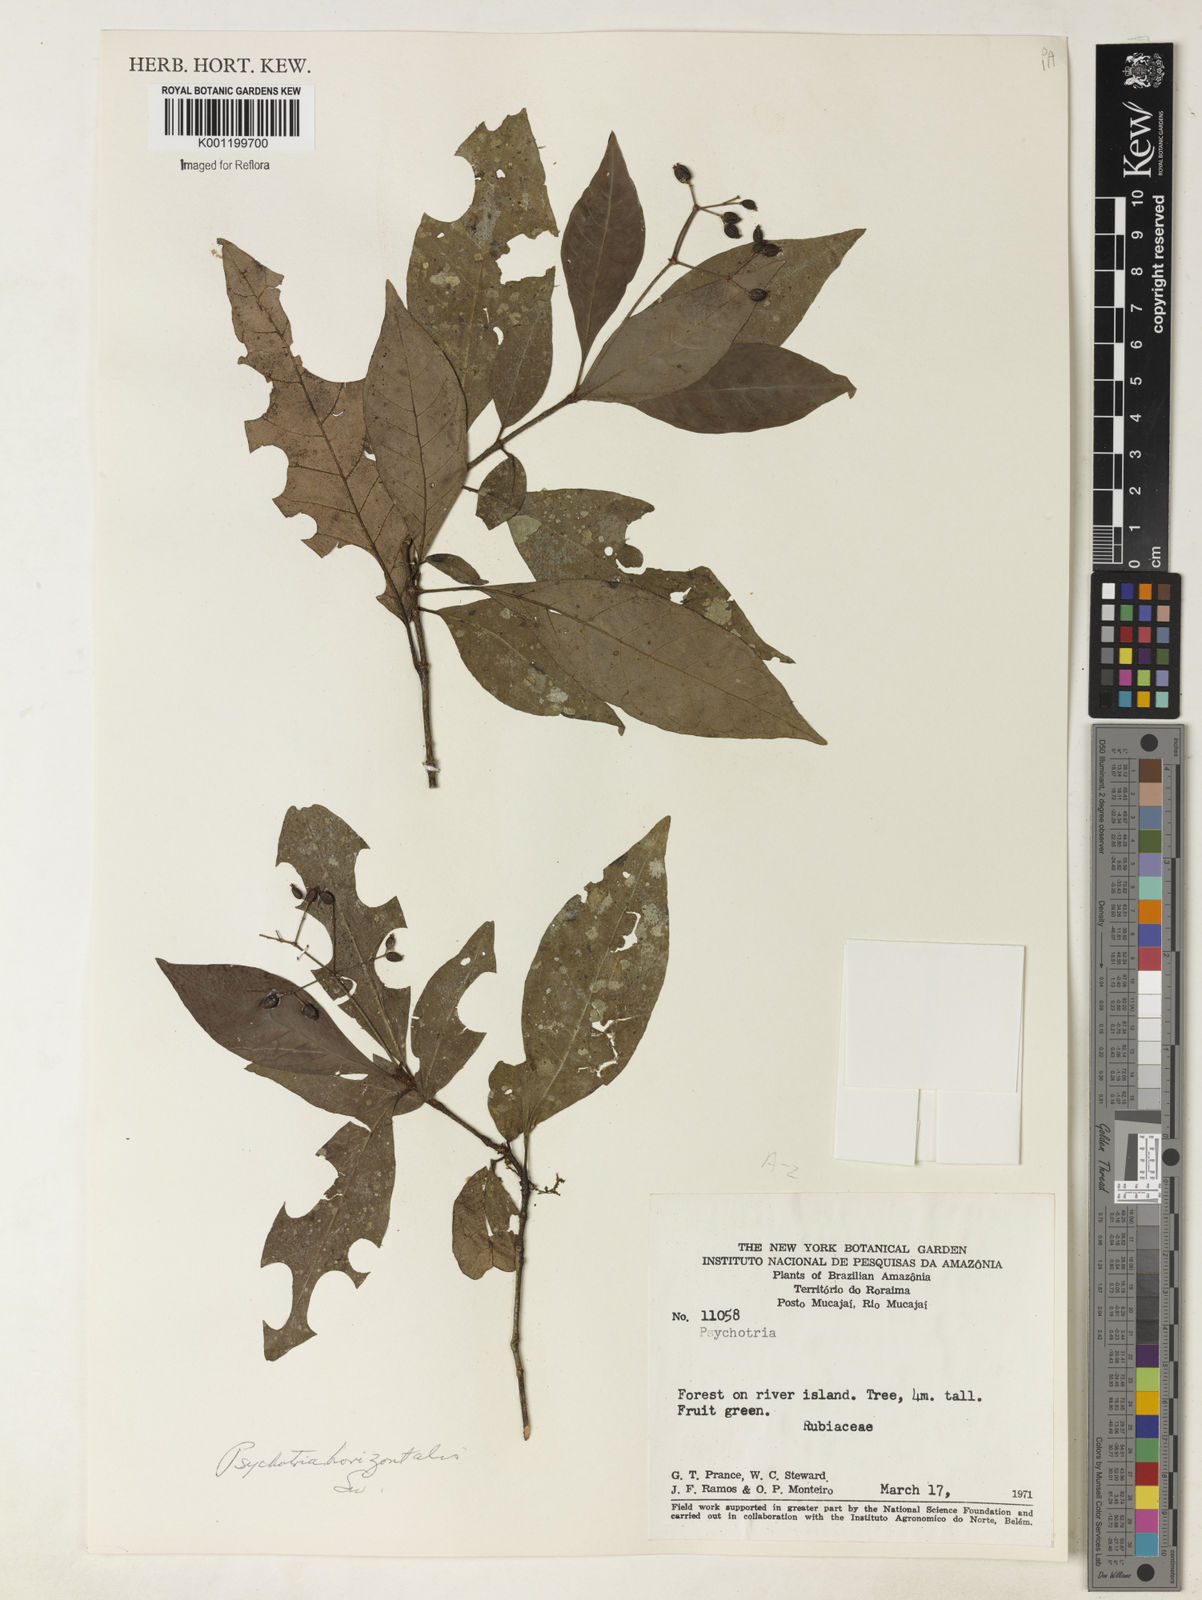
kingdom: Plantae
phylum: Tracheophyta
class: Magnoliopsida
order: Gentianales
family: Rubiaceae
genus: Psychotria
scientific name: Psychotria horizontalis
